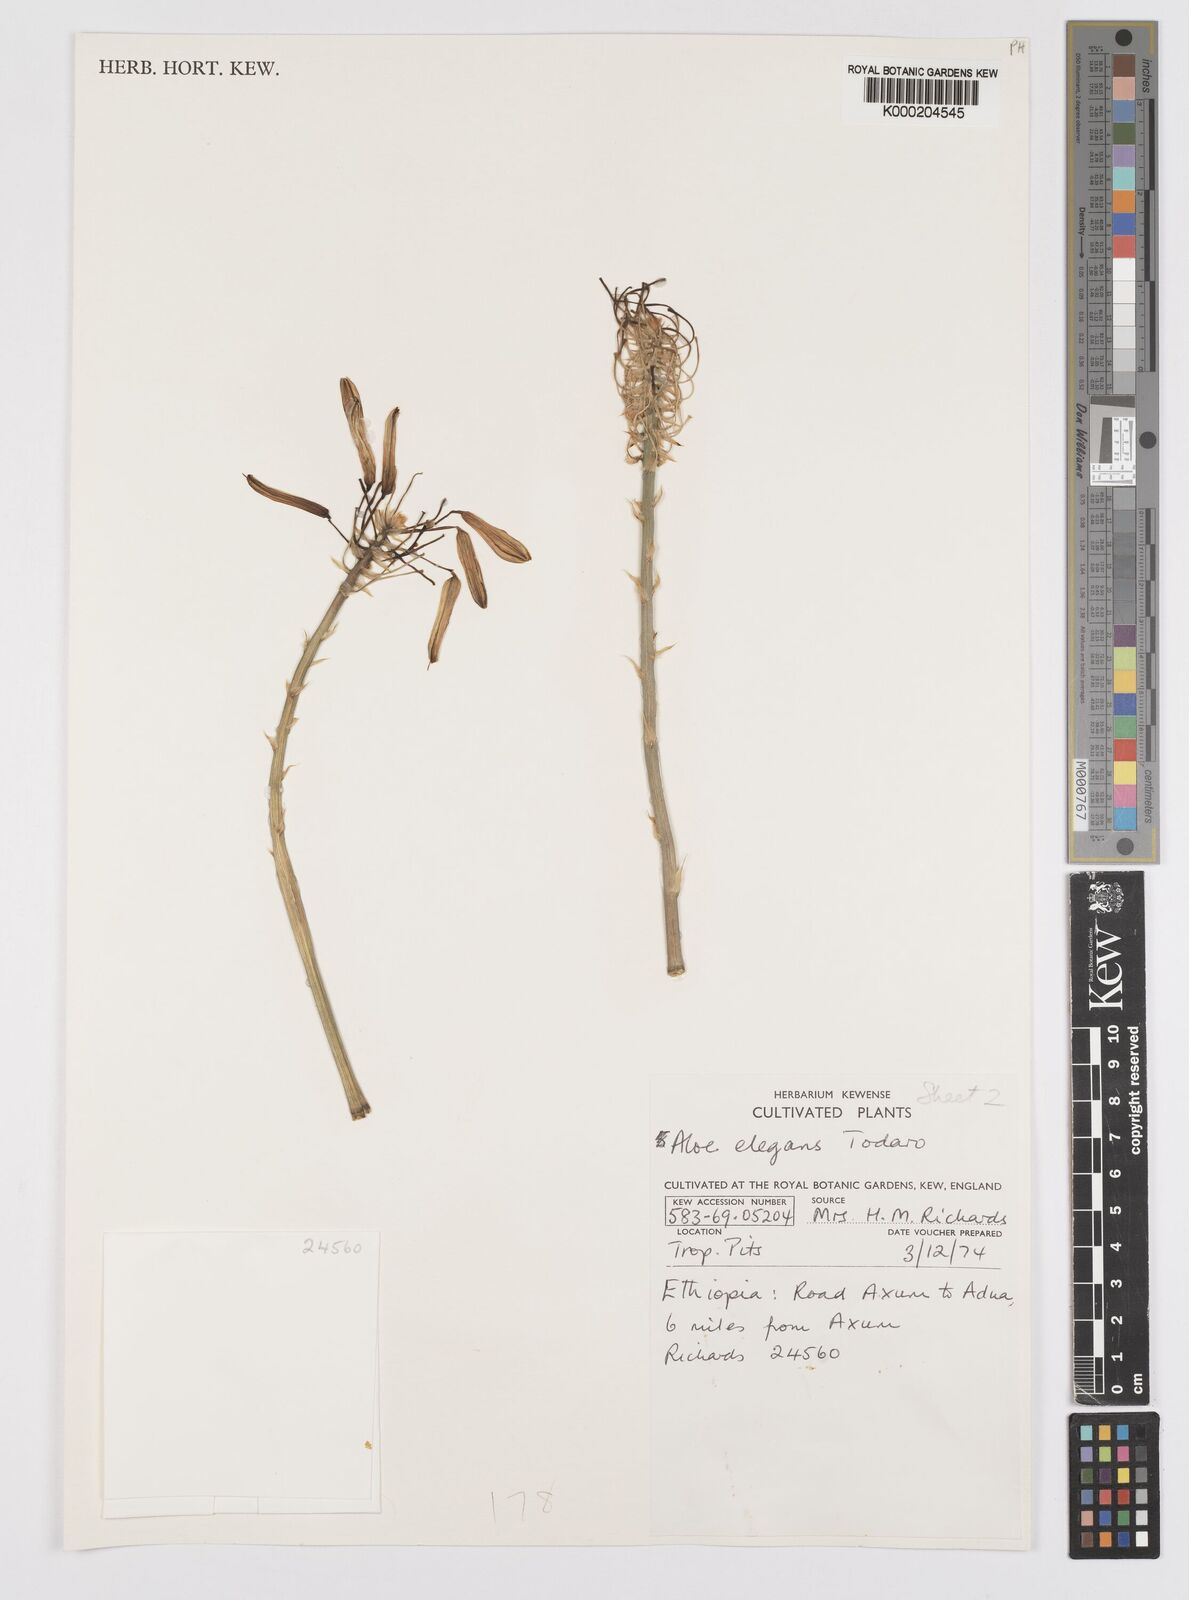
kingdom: Plantae
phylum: Tracheophyta
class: Liliopsida
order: Asparagales
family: Asphodelaceae
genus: Aloe
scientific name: Aloe elegans
